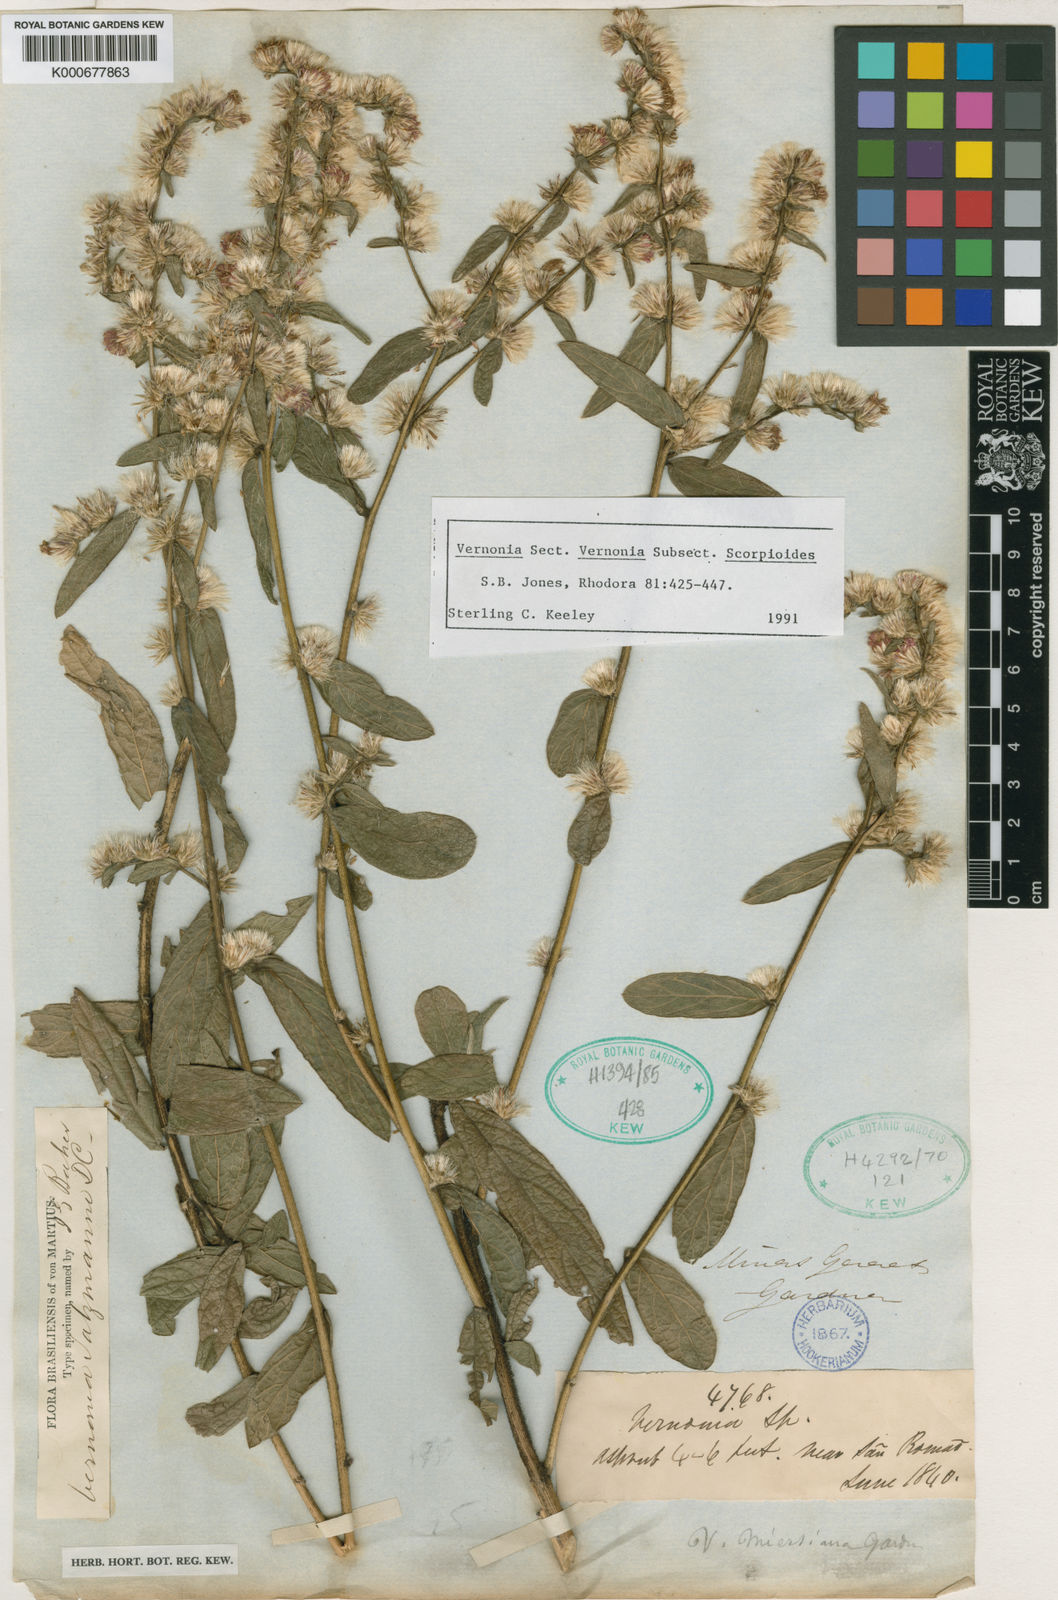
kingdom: Plantae
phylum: Tracheophyta
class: Magnoliopsida
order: Asterales
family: Asteraceae
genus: Lepidaploa
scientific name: Lepidaploa salzmannii
